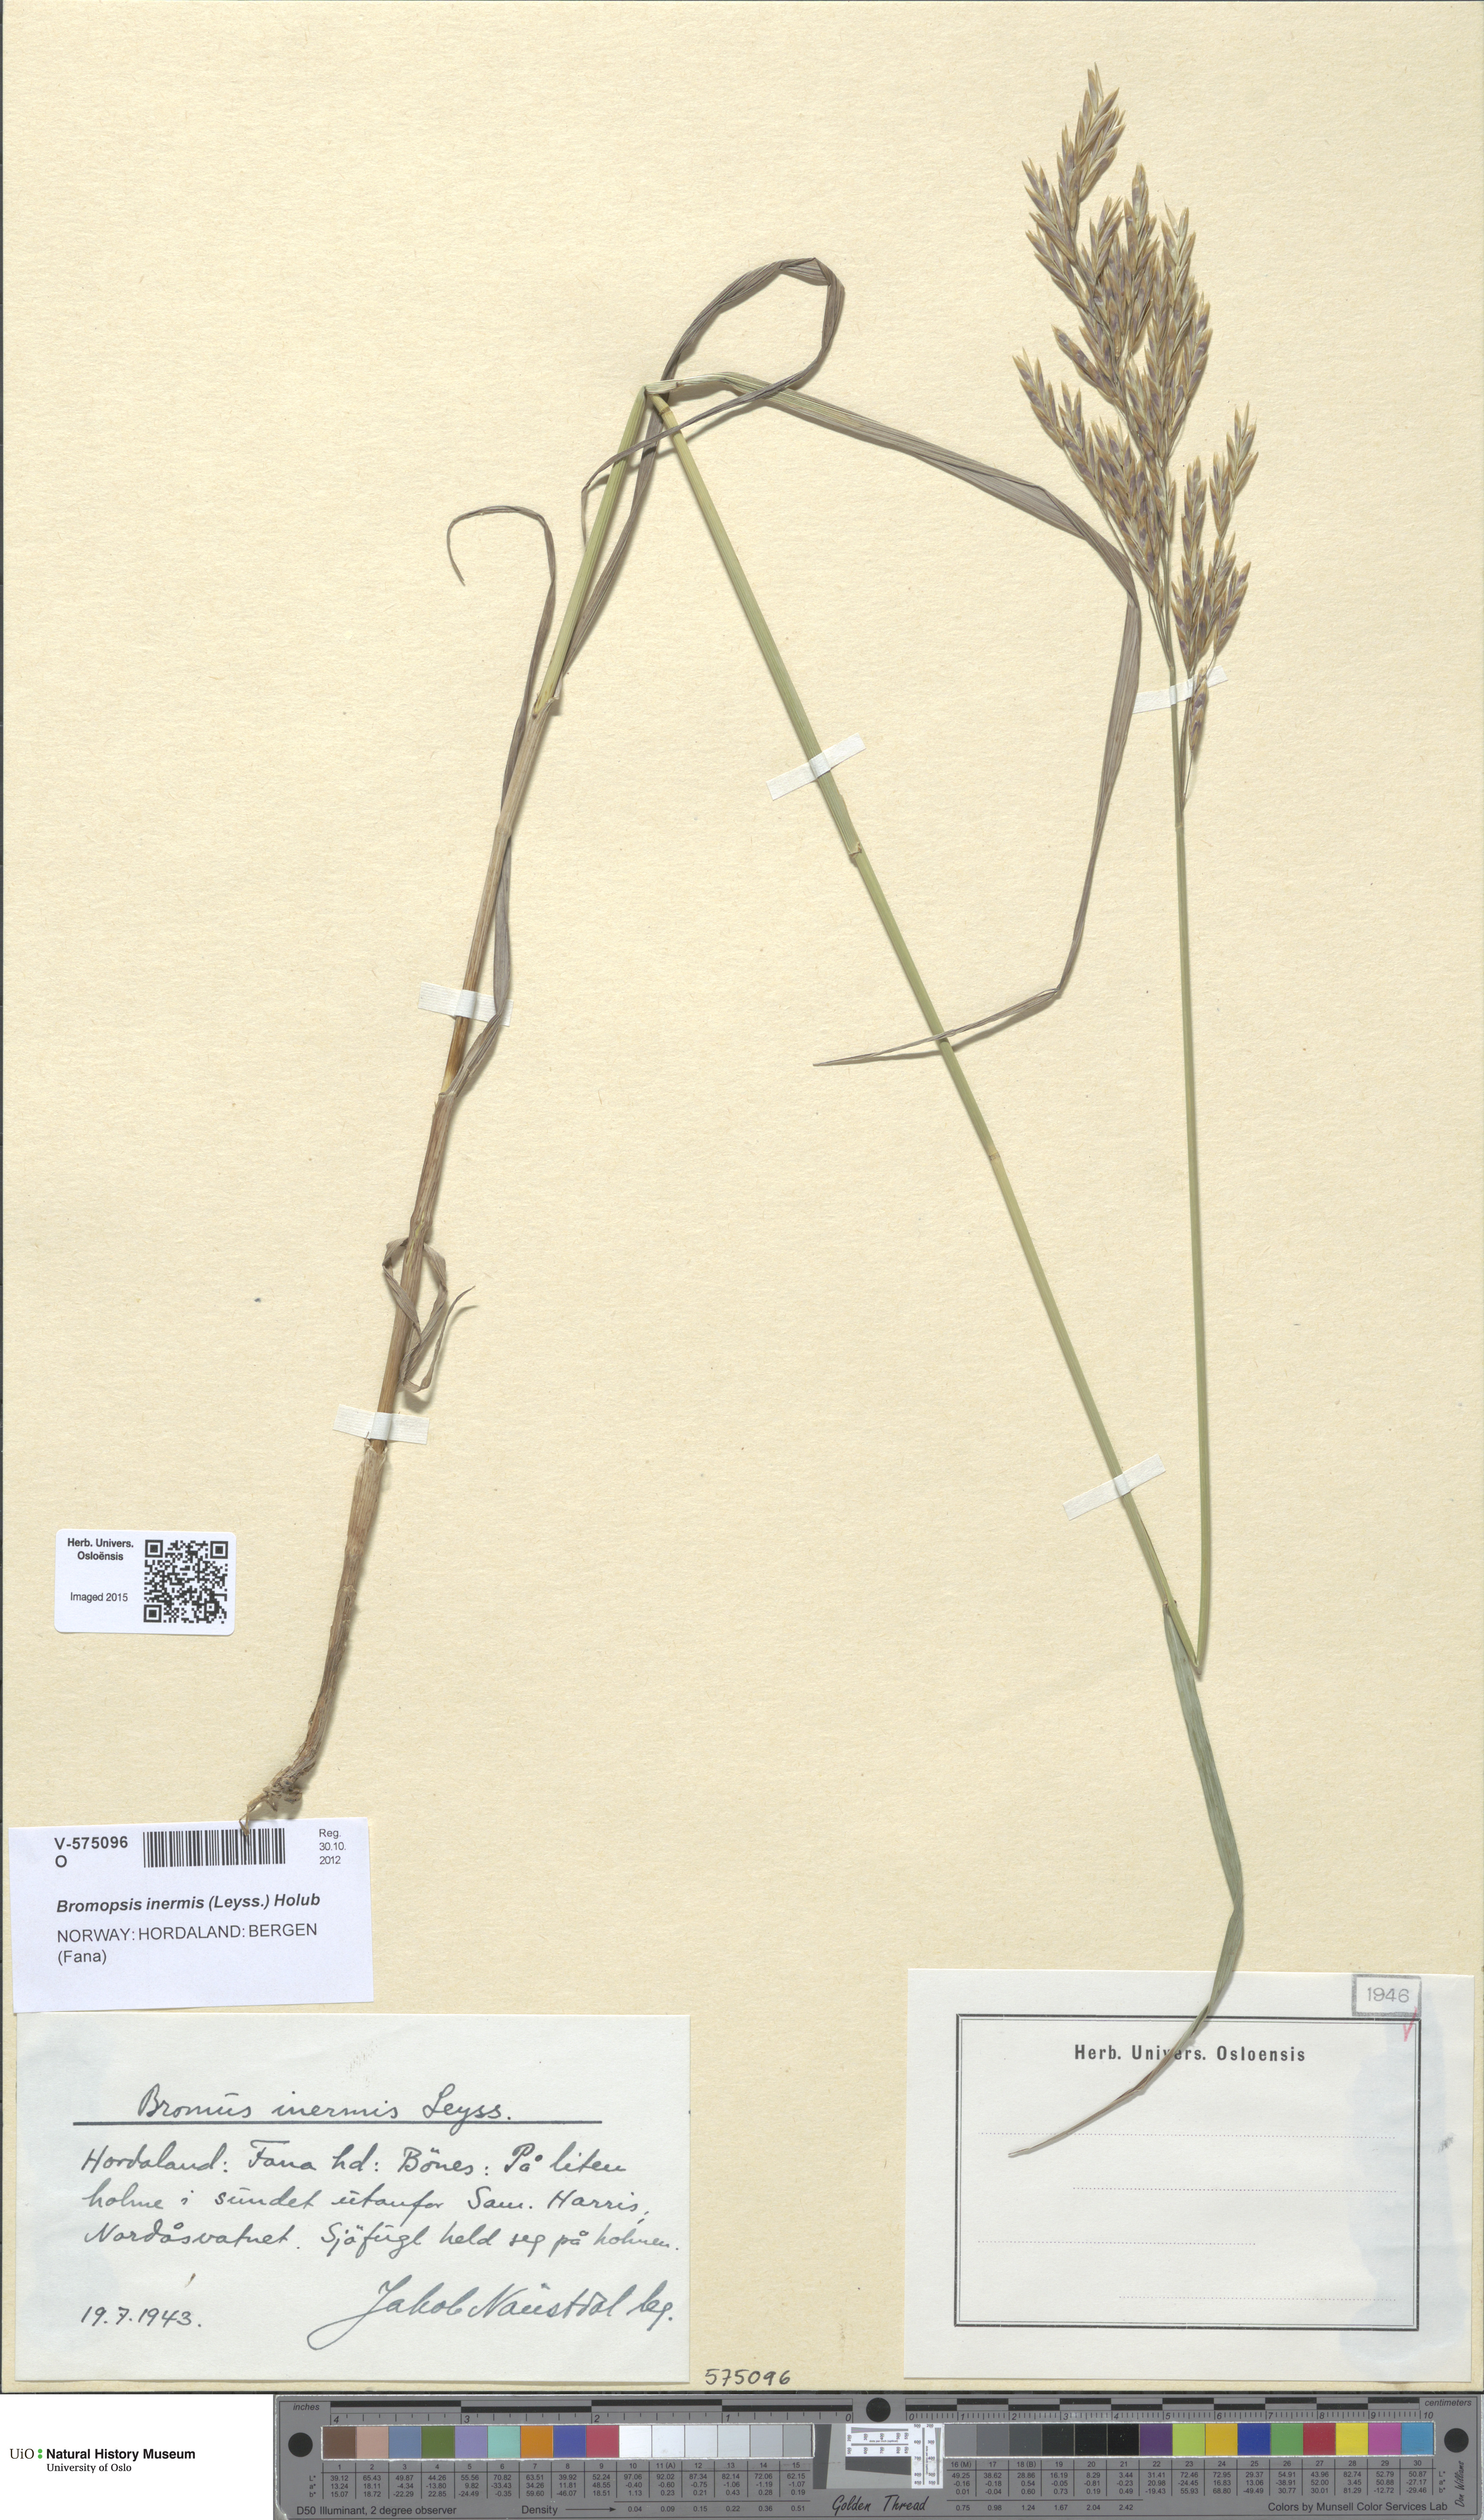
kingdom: Plantae
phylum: Tracheophyta
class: Liliopsida
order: Poales
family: Poaceae
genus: Bromus
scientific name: Bromus inermis
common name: Smooth brome
